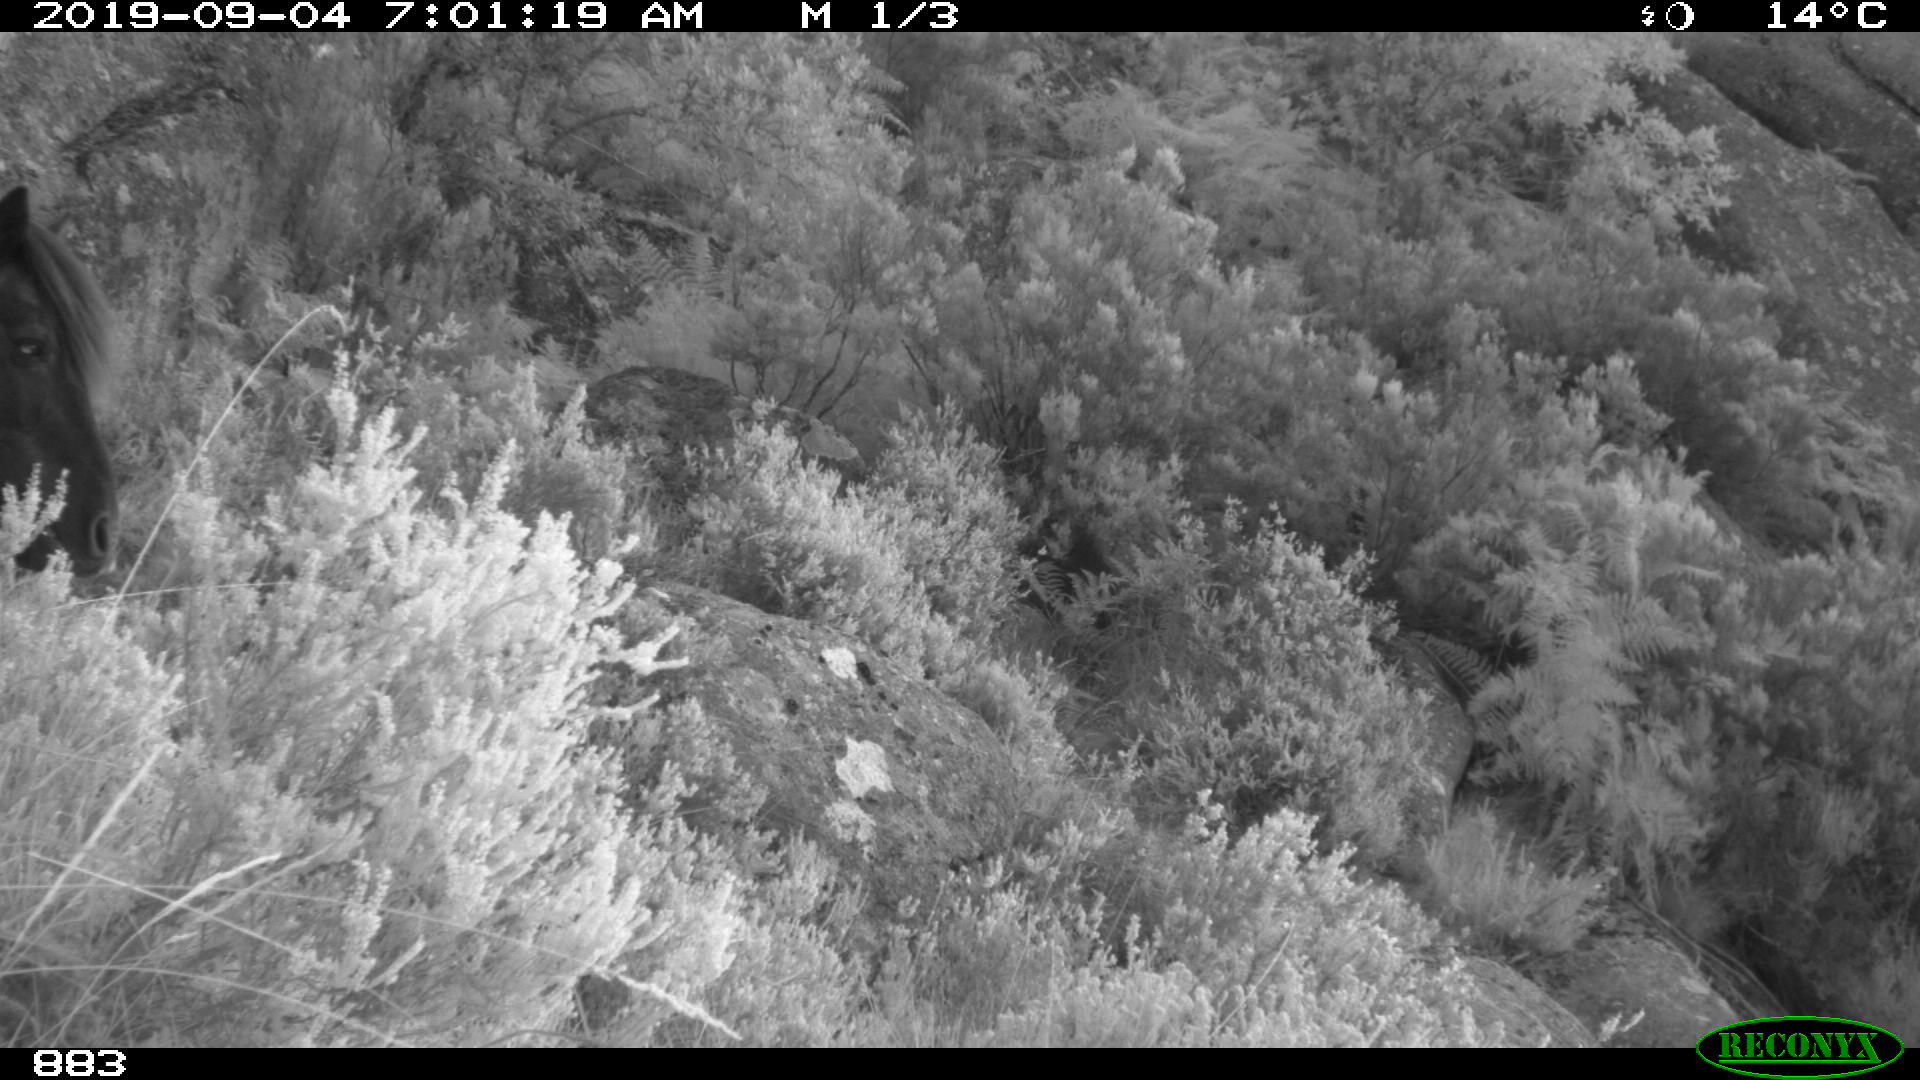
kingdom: Animalia
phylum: Chordata
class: Mammalia
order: Perissodactyla
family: Equidae
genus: Equus
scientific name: Equus caballus
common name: Horse
